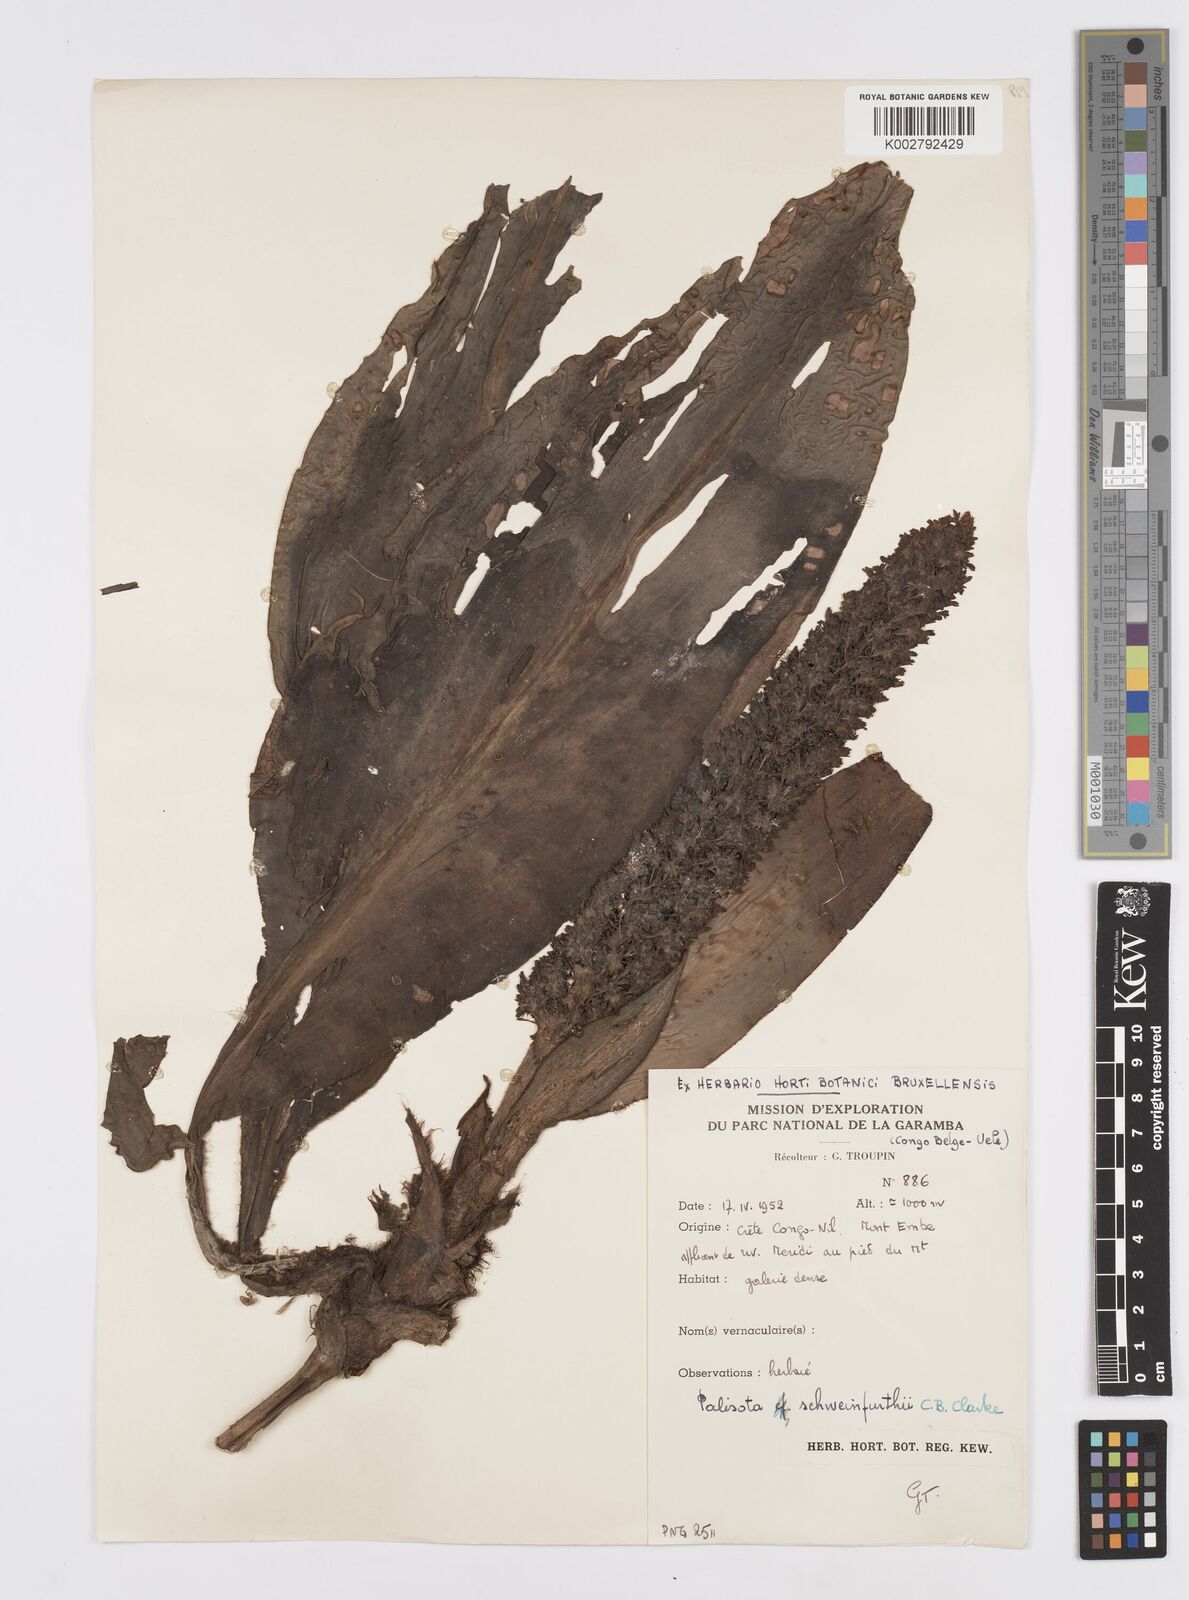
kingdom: Plantae
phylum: Tracheophyta
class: Liliopsida
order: Commelinales
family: Commelinaceae
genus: Palisota
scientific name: Palisota schweinfurthii
